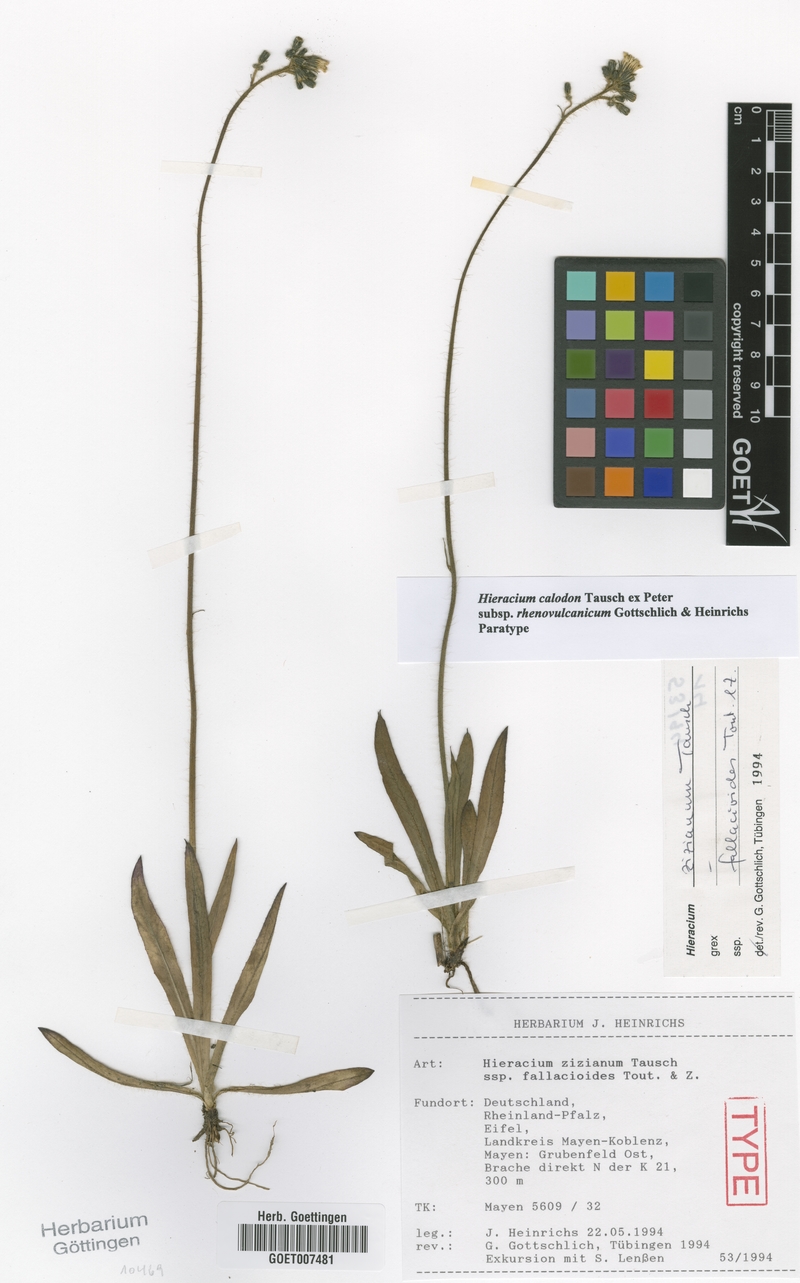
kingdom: Plantae
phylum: Tracheophyta
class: Magnoliopsida
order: Asterales
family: Asteraceae
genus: Pilosella
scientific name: Pilosella calodon
